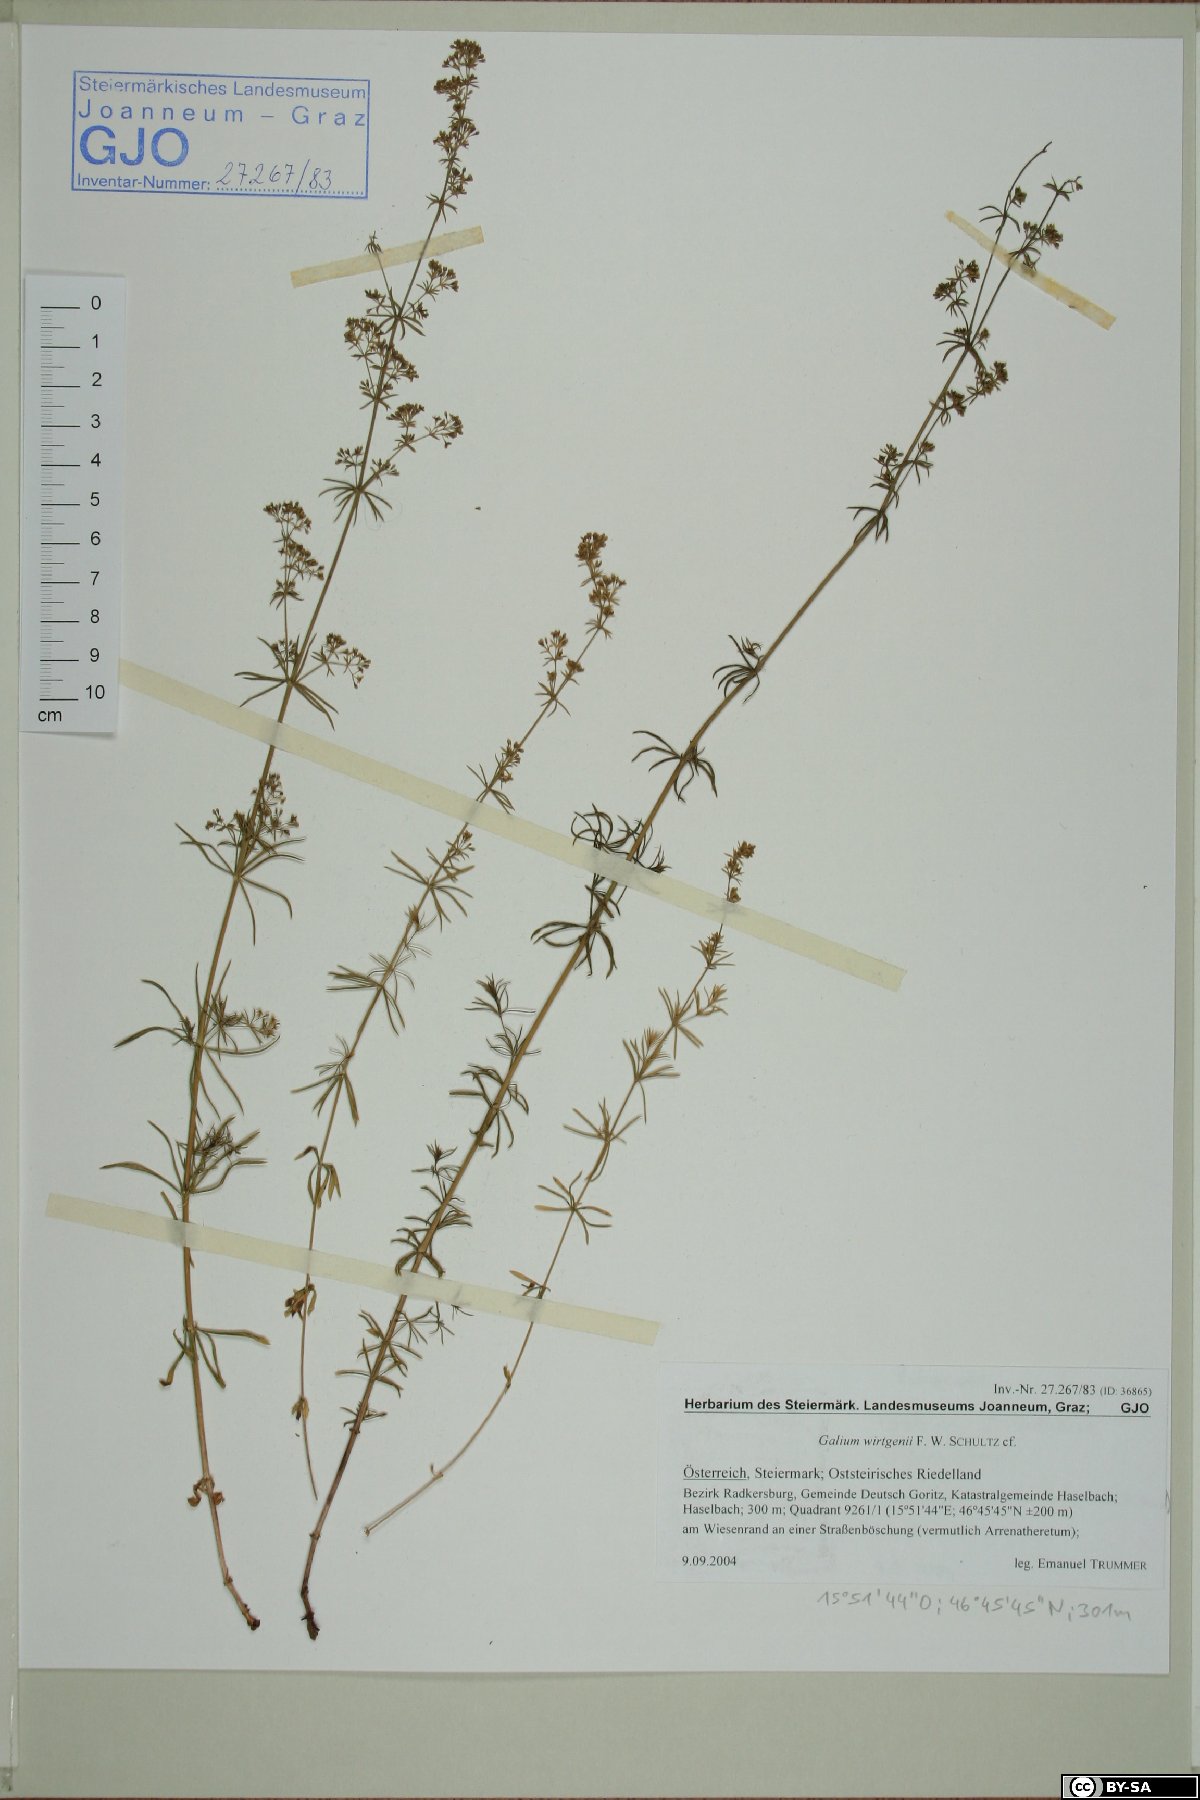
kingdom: Plantae
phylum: Tracheophyta
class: Magnoliopsida
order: Gentianales
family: Rubiaceae
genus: Galium
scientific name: Galium verum
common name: Lady's bedstraw
